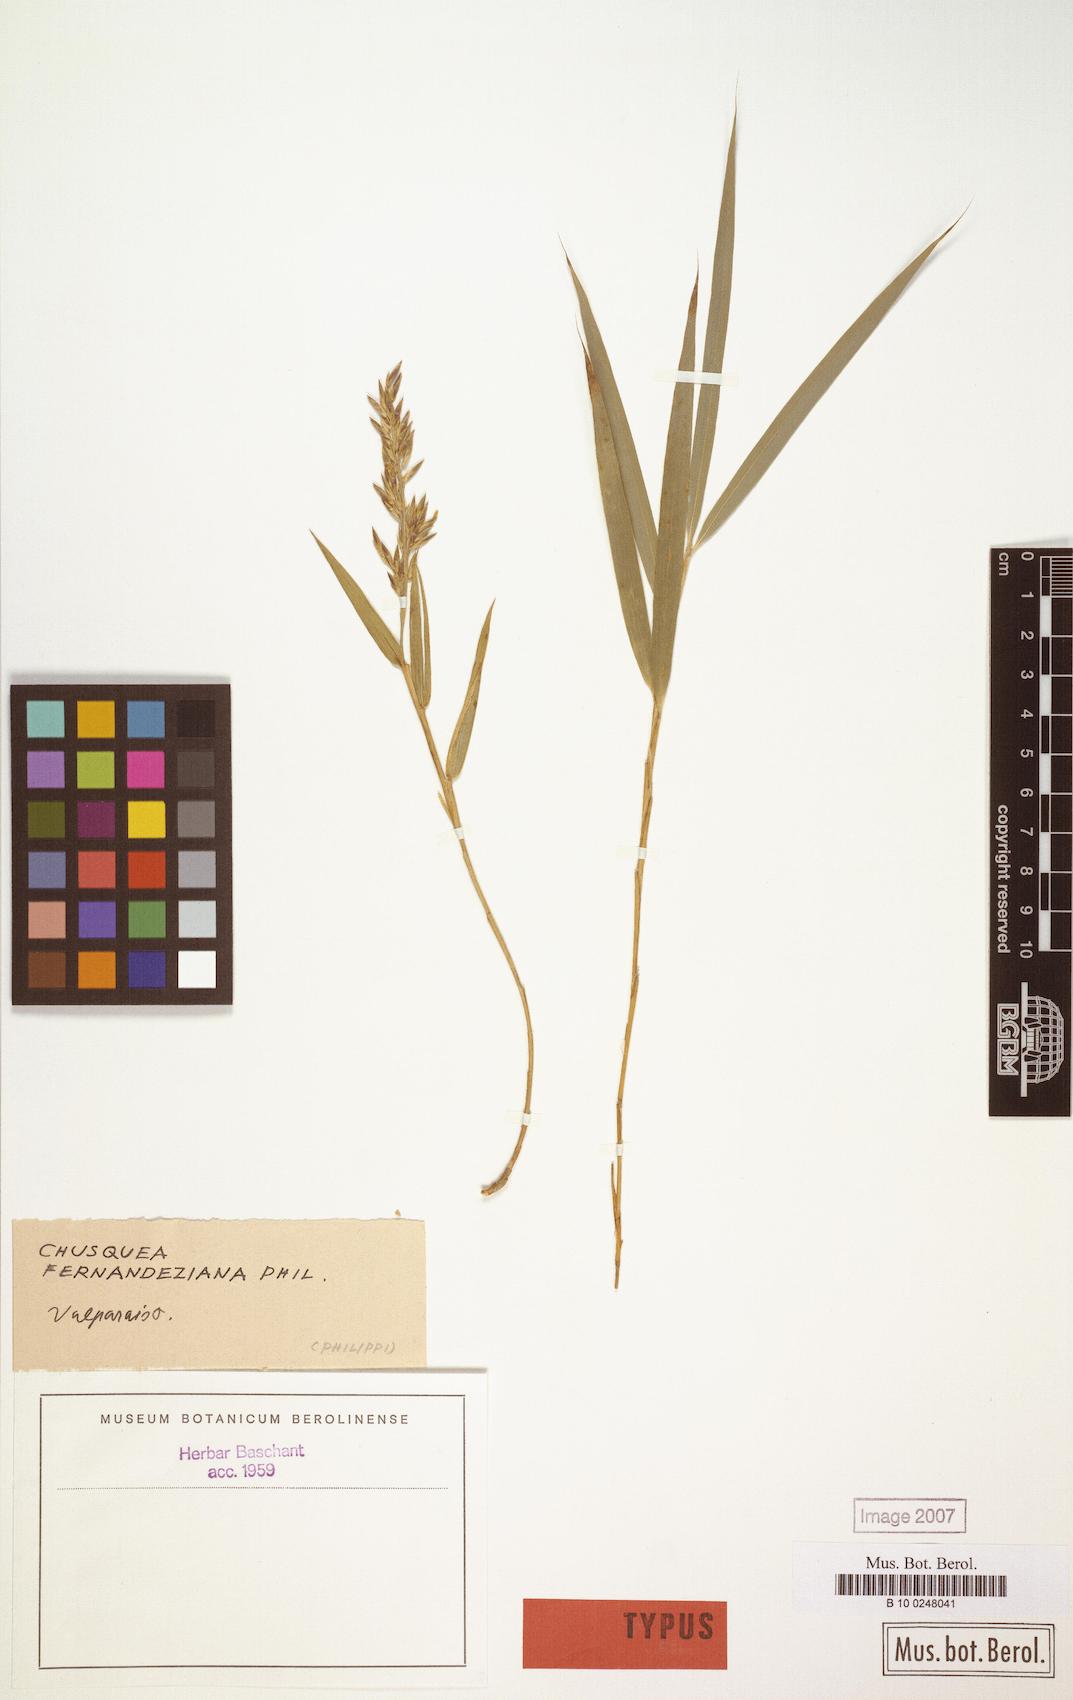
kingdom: Plantae
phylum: Tracheophyta
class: Liliopsida
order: Poales
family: Poaceae
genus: Chusquea
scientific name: Chusquea fernandeziana
